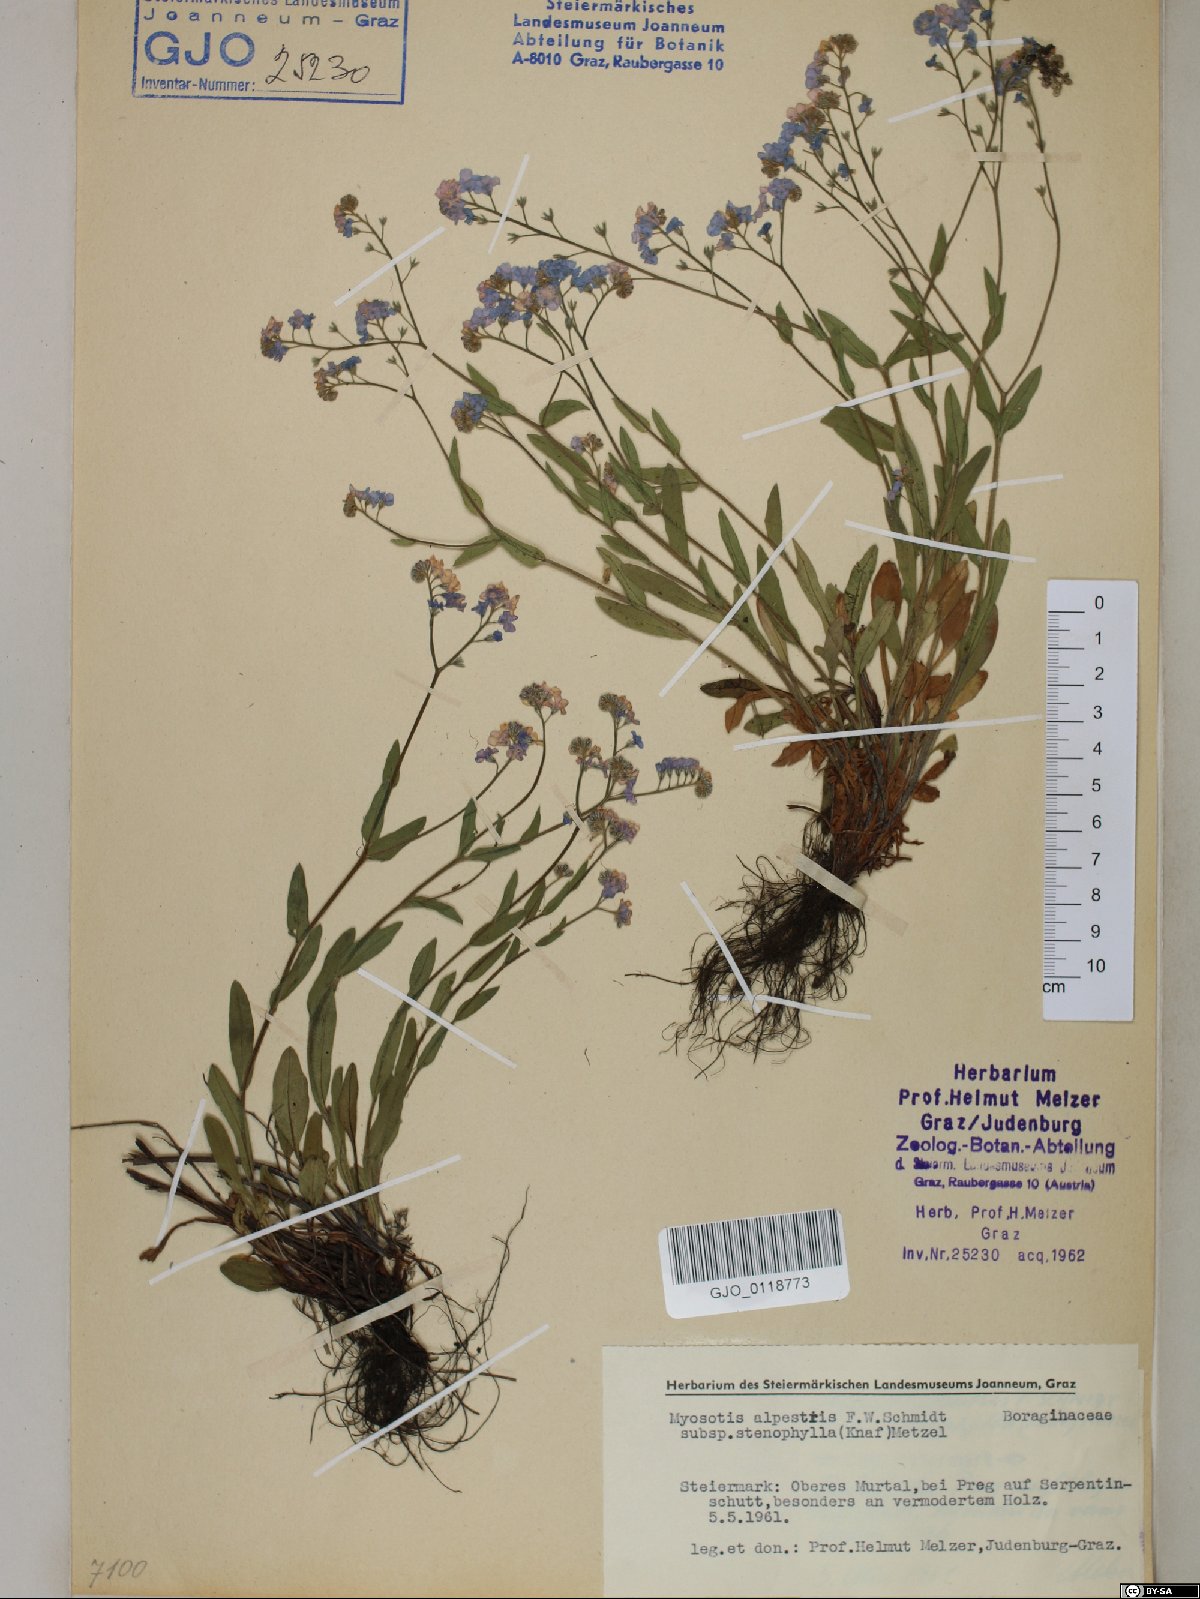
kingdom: Plantae
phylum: Tracheophyta
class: Magnoliopsida
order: Boraginales
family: Boraginaceae
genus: Myosotis
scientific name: Myosotis alpestris
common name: Alpine forget-me-not
